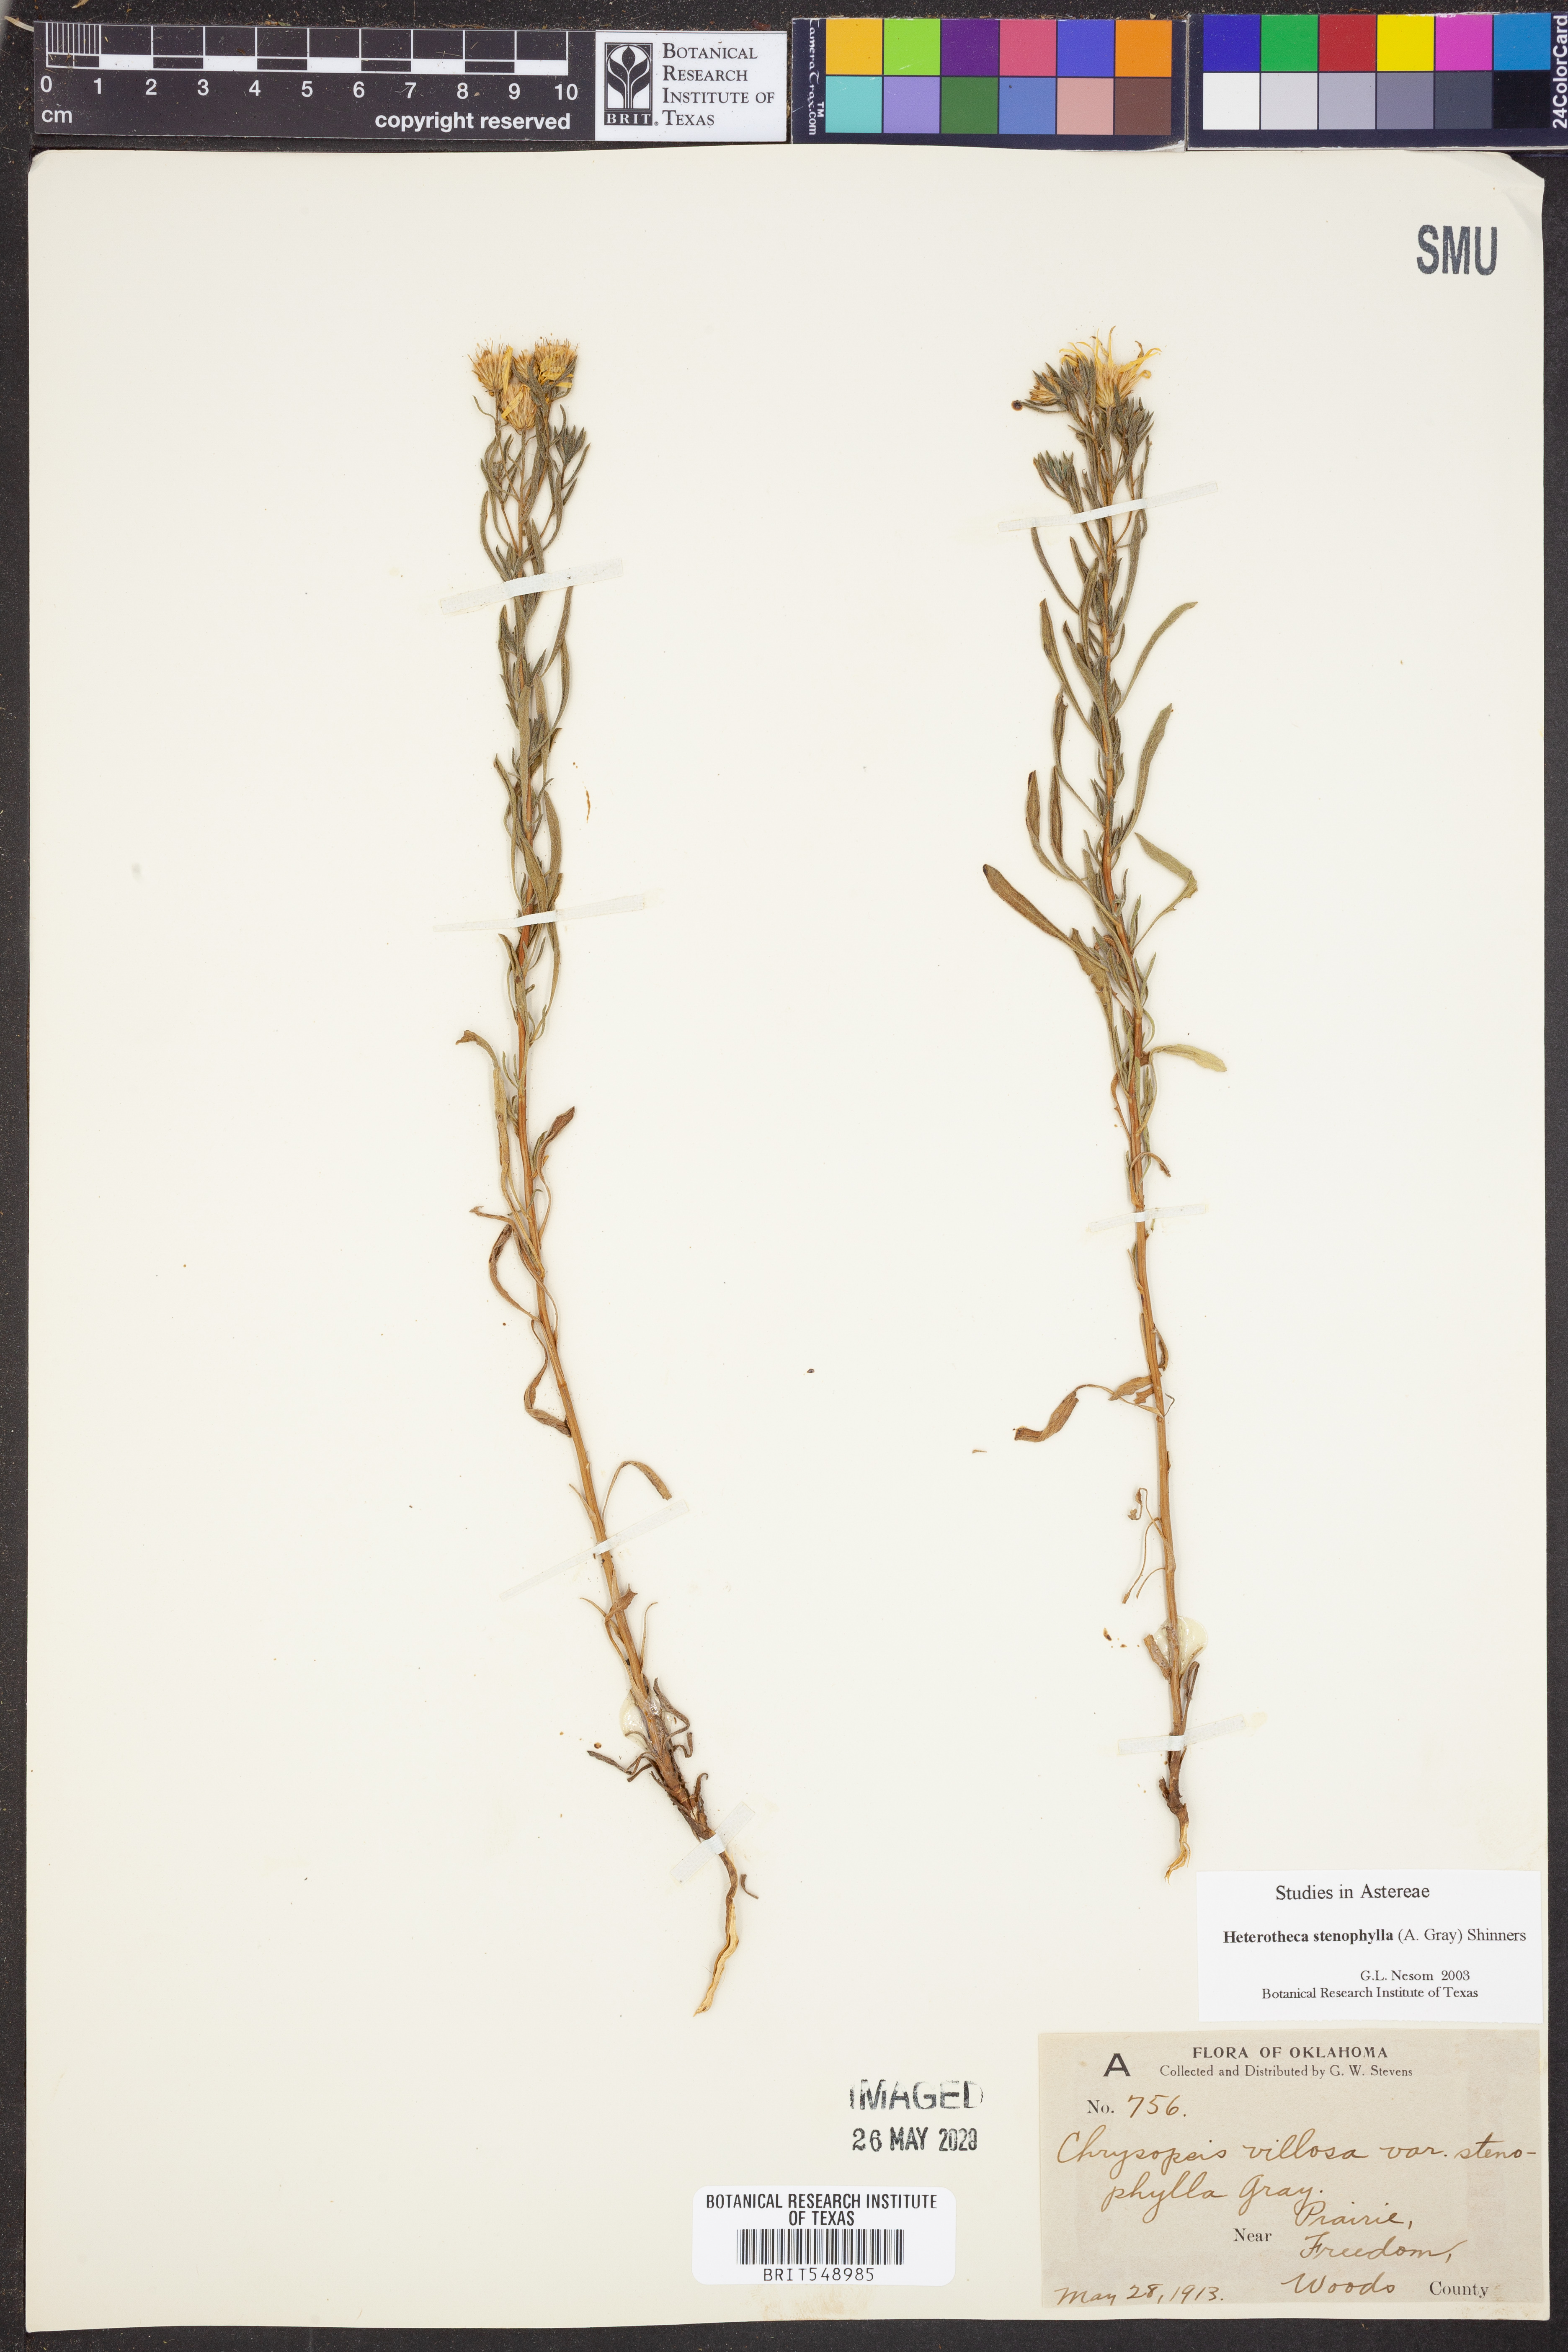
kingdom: Plantae
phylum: Tracheophyta
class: Magnoliopsida
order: Asterales
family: Asteraceae
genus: Heterotheca
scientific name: Heterotheca stenophylla
